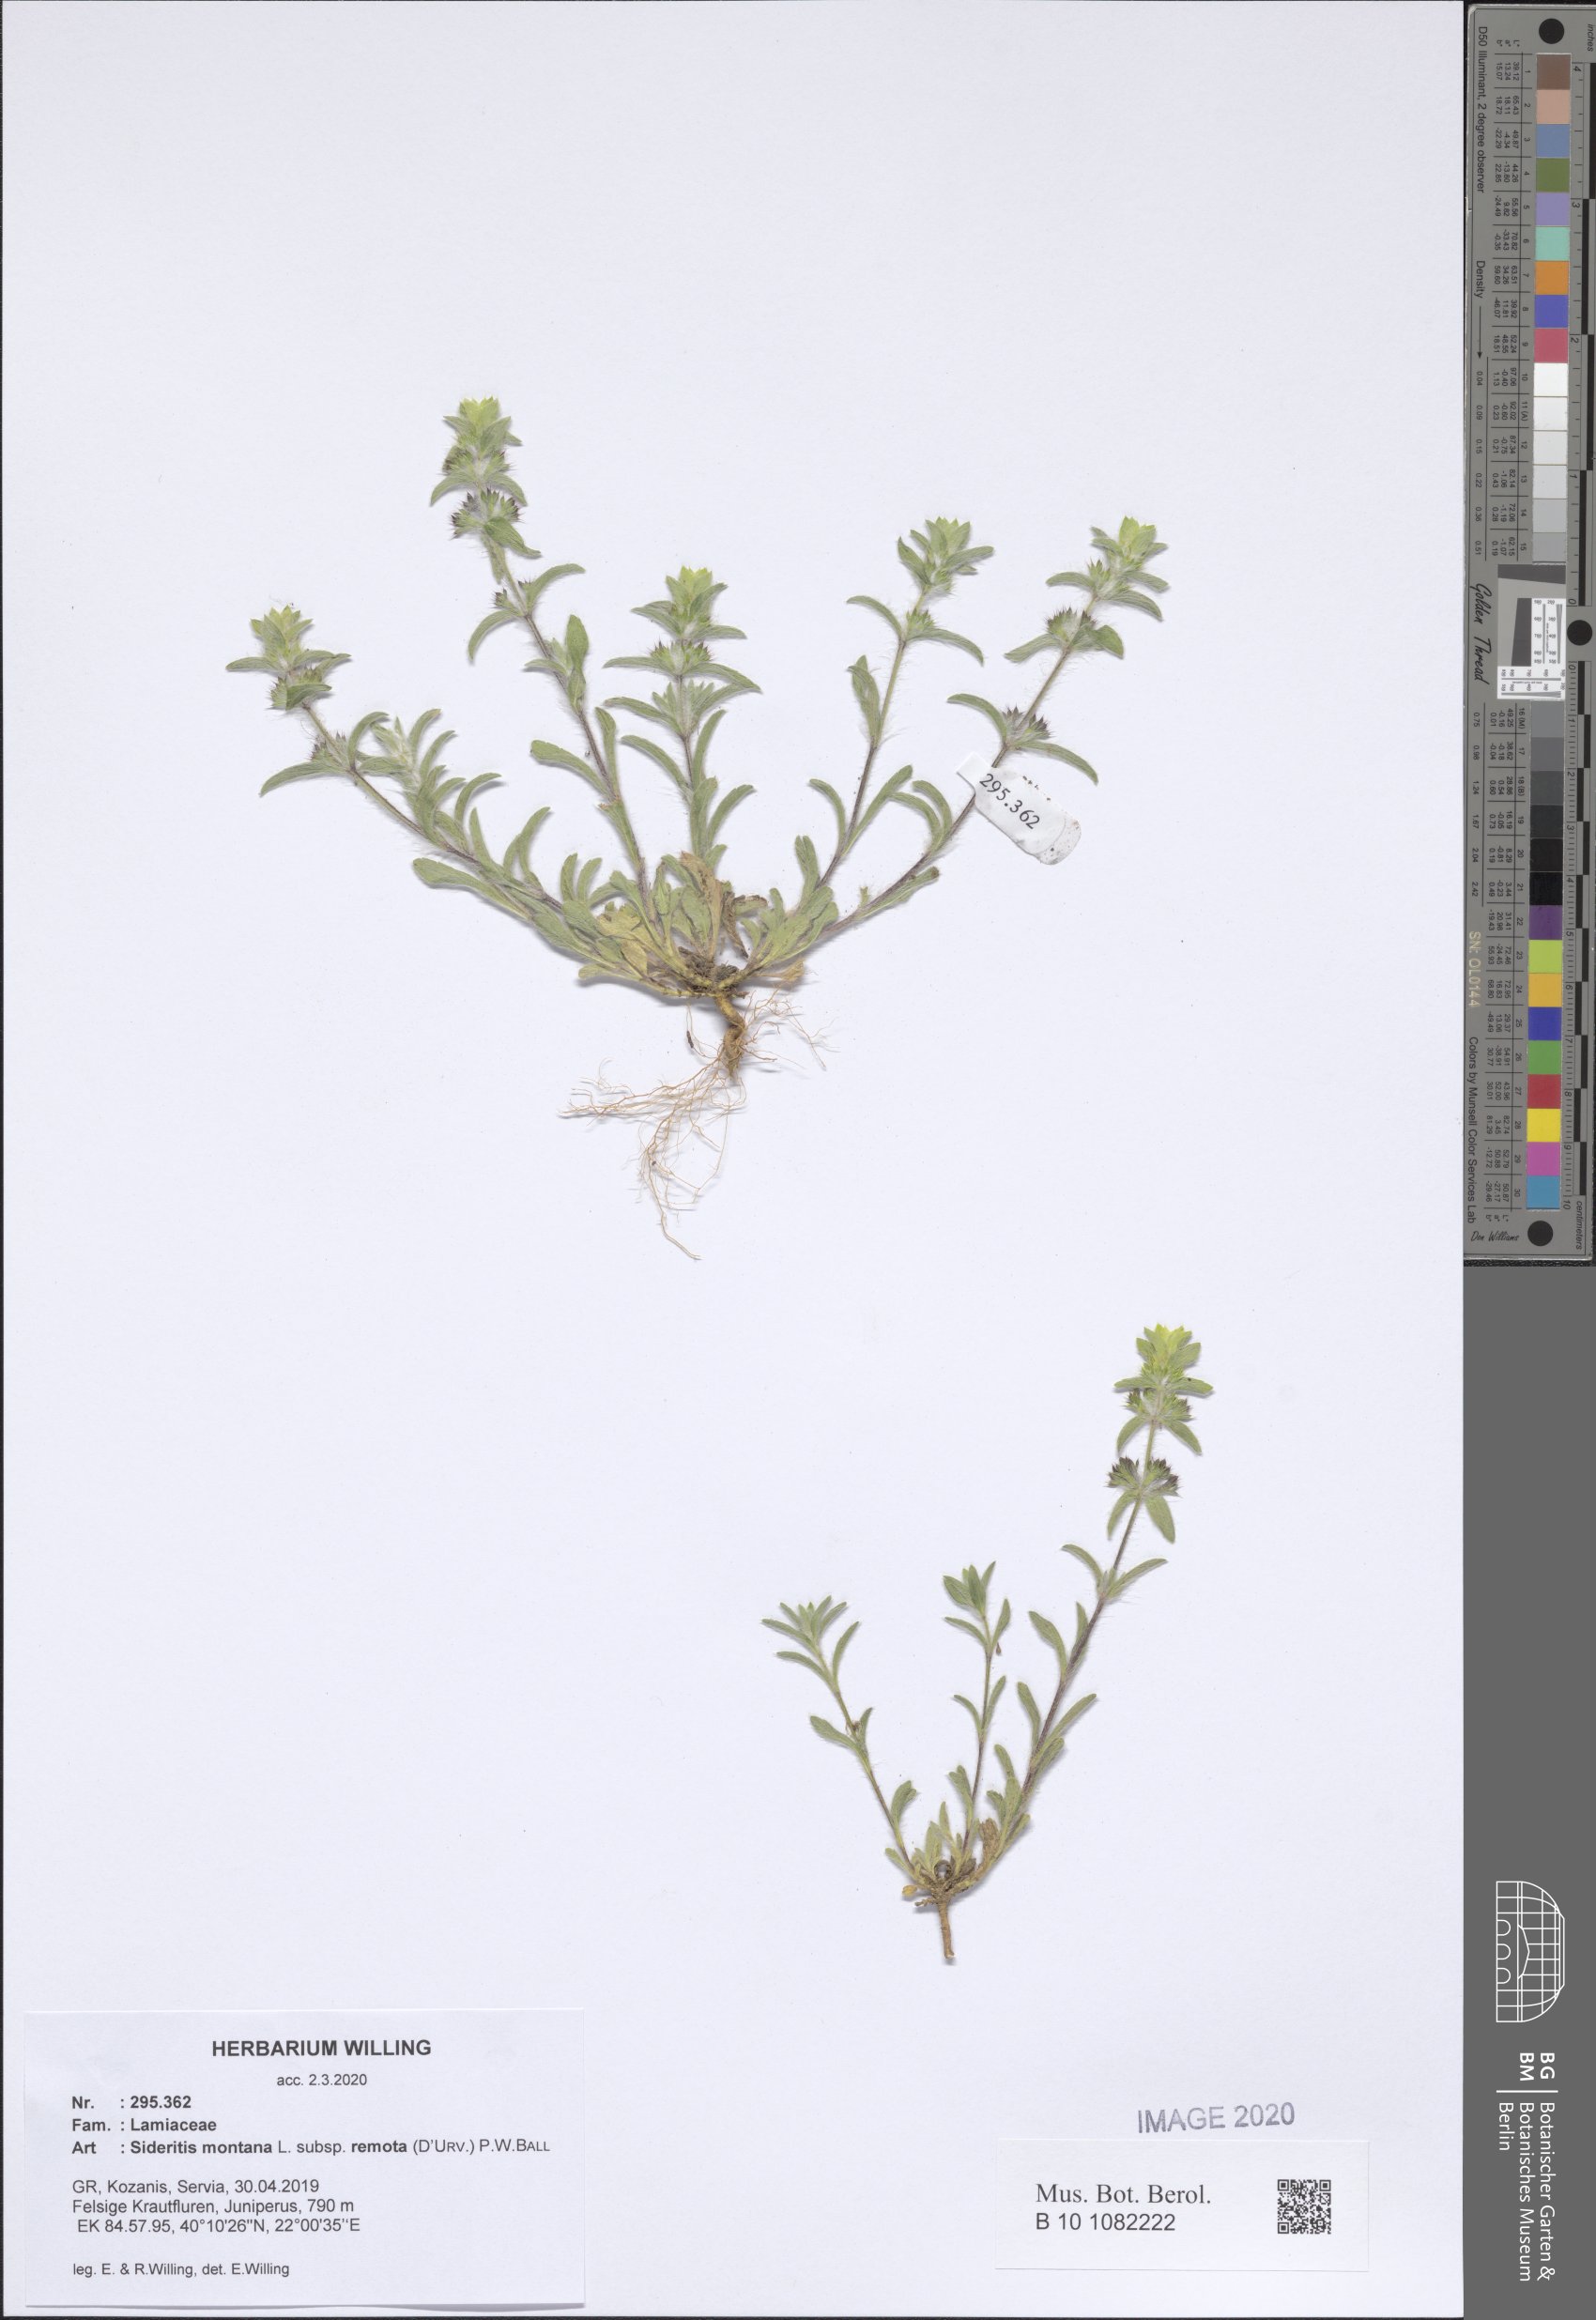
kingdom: Plantae
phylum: Tracheophyta
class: Magnoliopsida
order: Lamiales
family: Lamiaceae
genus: Sideritis
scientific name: Sideritis montana
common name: Mountain ironwort
